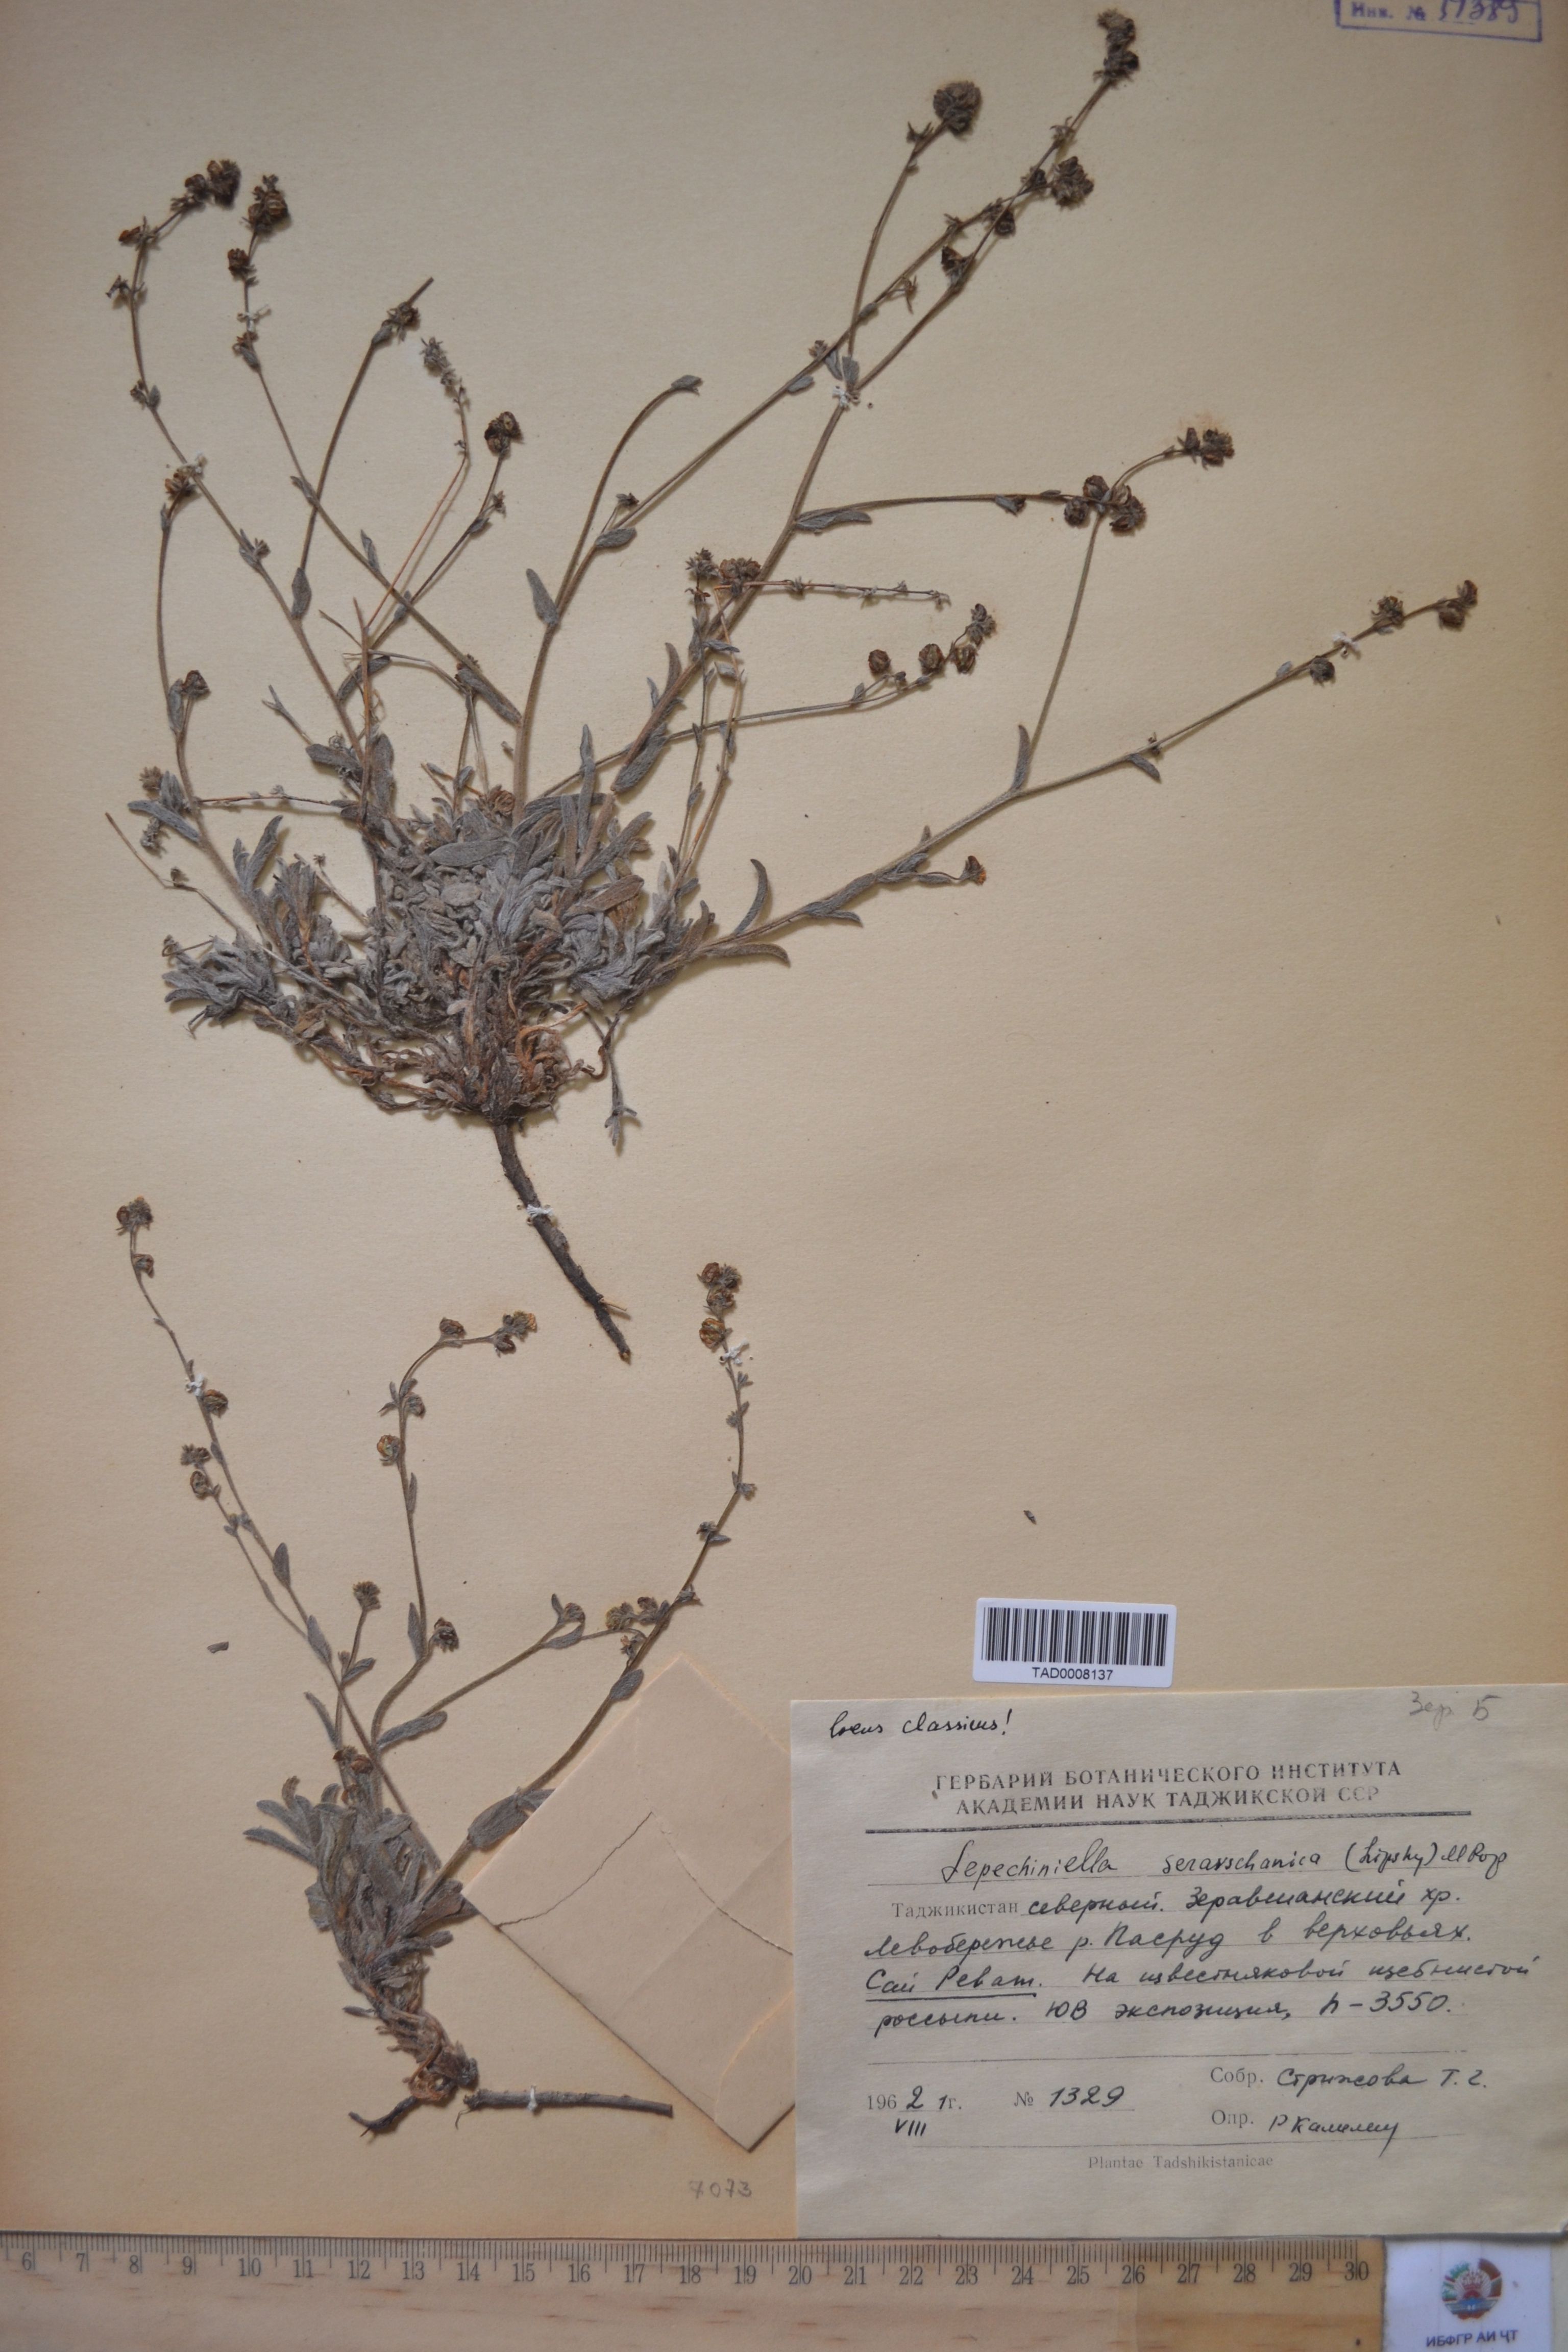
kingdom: Plantae
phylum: Tracheophyta
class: Magnoliopsida
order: Boraginales
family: Boraginaceae
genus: Lepechiniella
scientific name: Lepechiniella seravschanica
